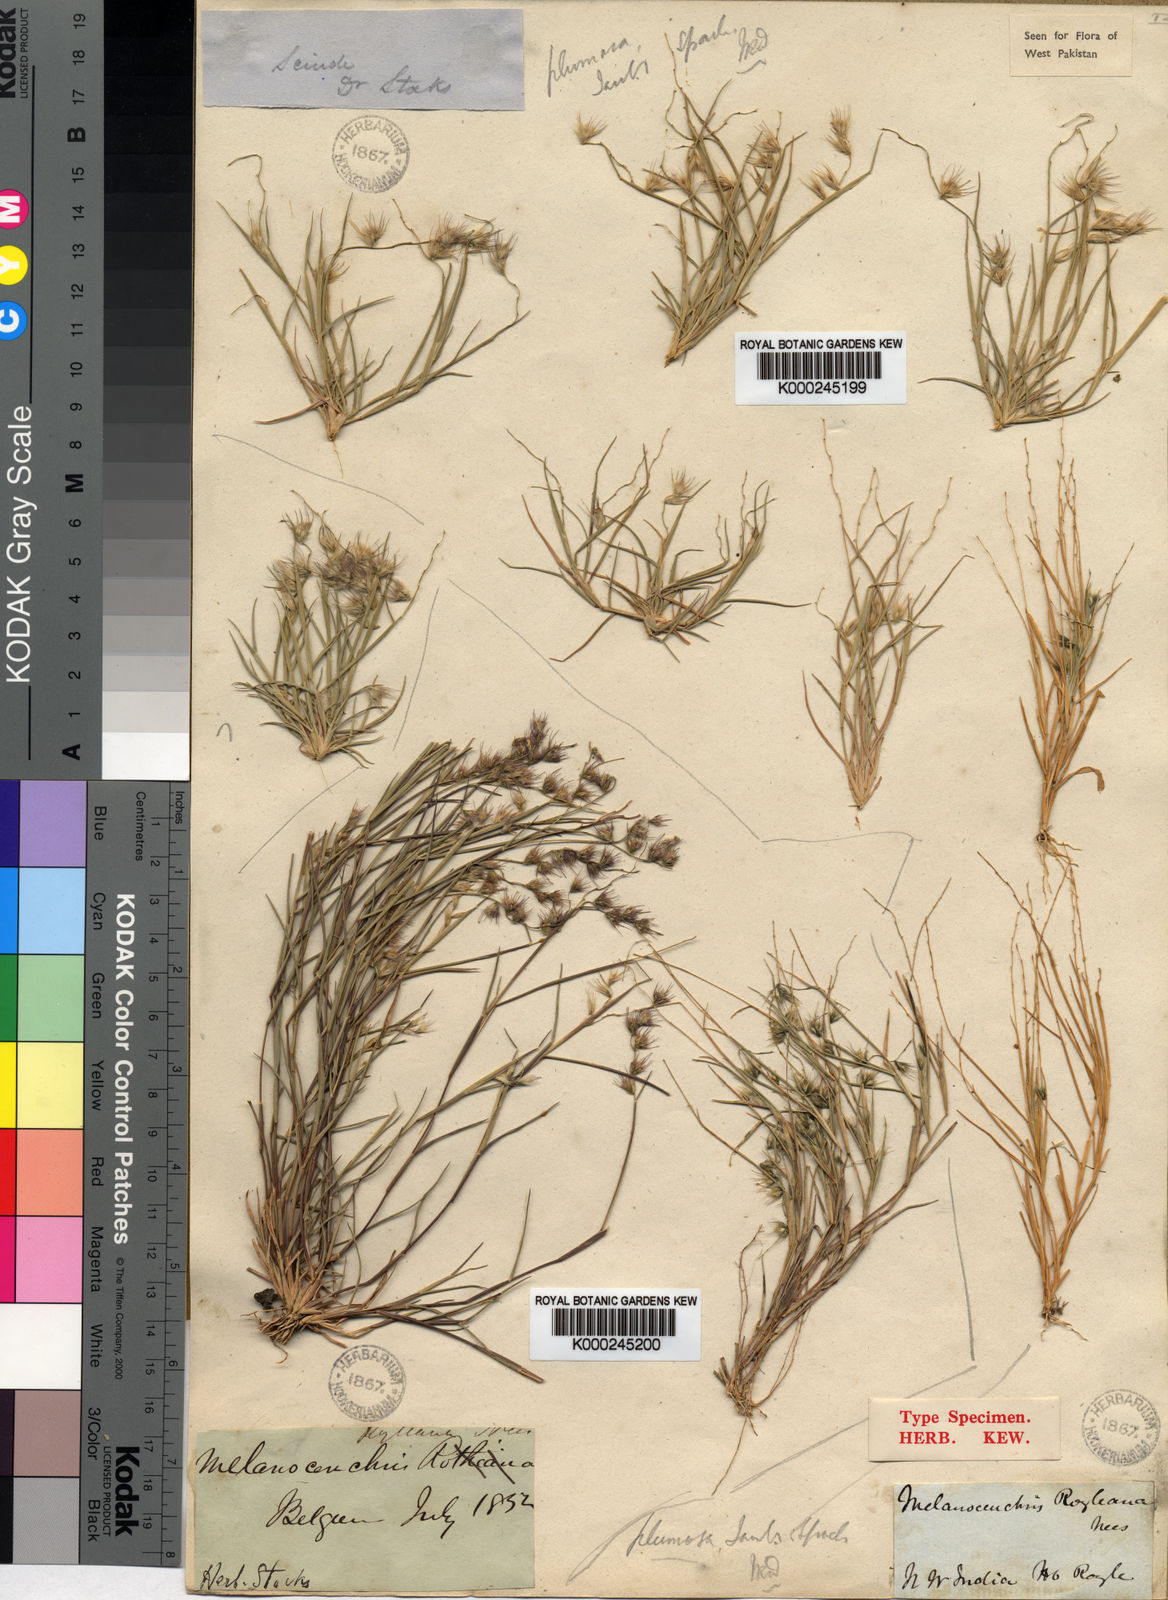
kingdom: Plantae
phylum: Tracheophyta
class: Liliopsida
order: Poales
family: Poaceae
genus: Melanocenchris
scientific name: Melanocenchris jacquemontii
